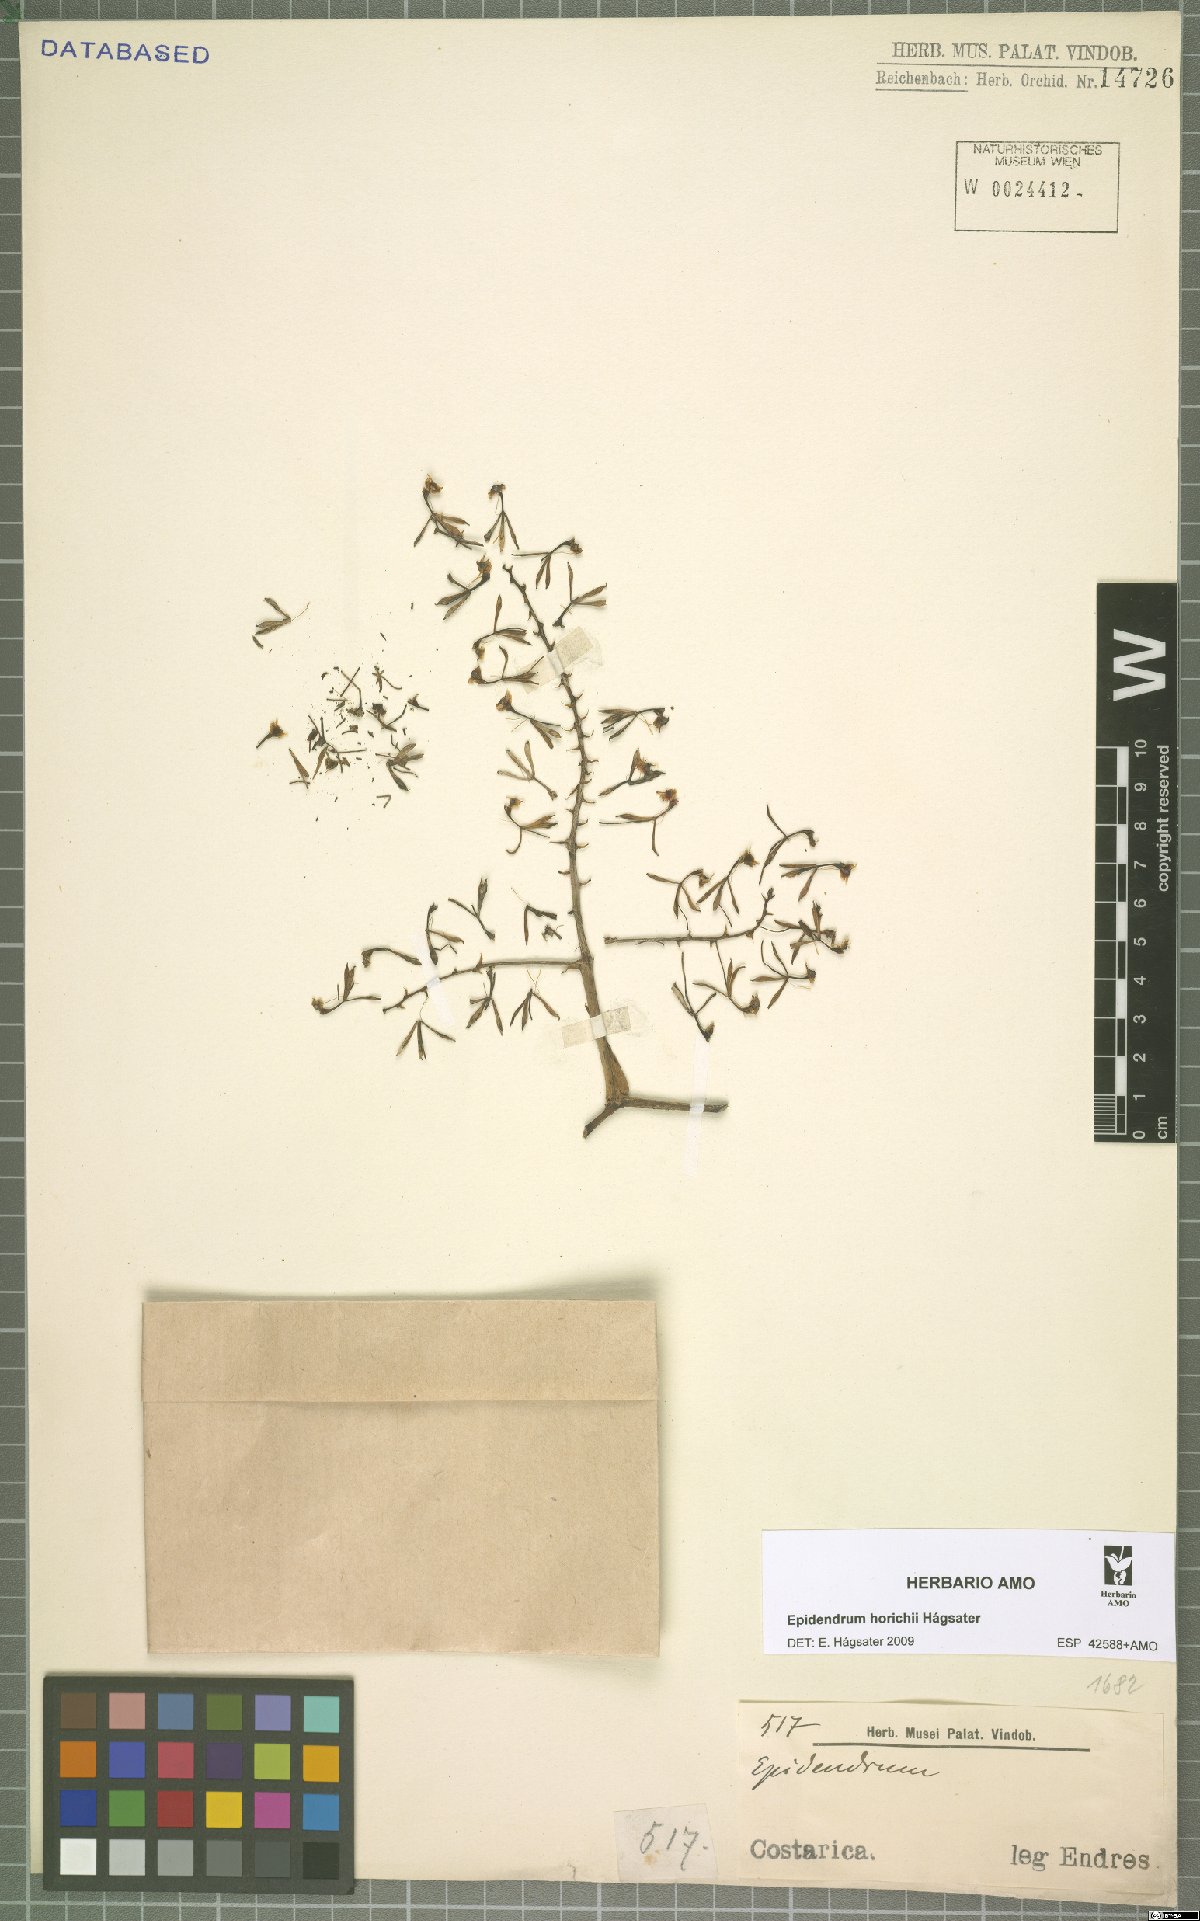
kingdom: Plantae
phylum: Tracheophyta
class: Liliopsida
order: Asparagales
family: Orchidaceae
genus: Epidendrum
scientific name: Epidendrum horichii
